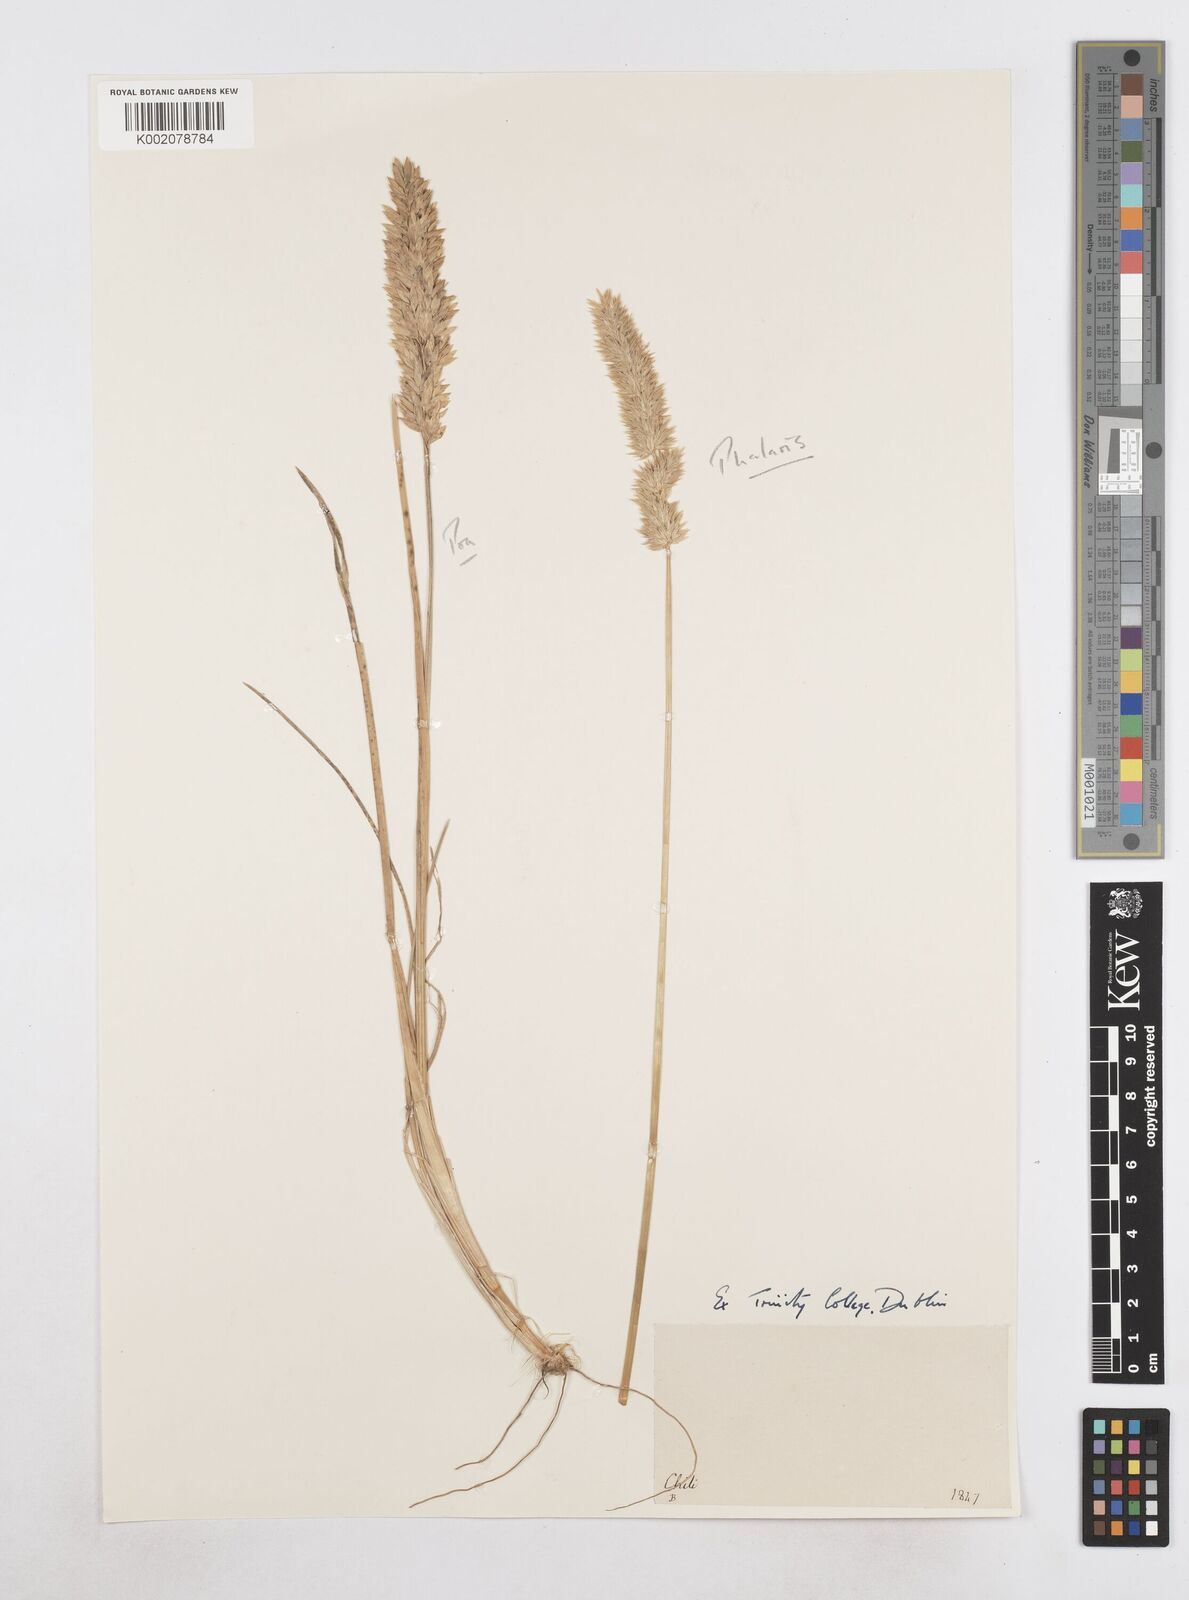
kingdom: Plantae
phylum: Tracheophyta
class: Liliopsida
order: Poales
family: Poaceae
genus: Poa
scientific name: Poa
